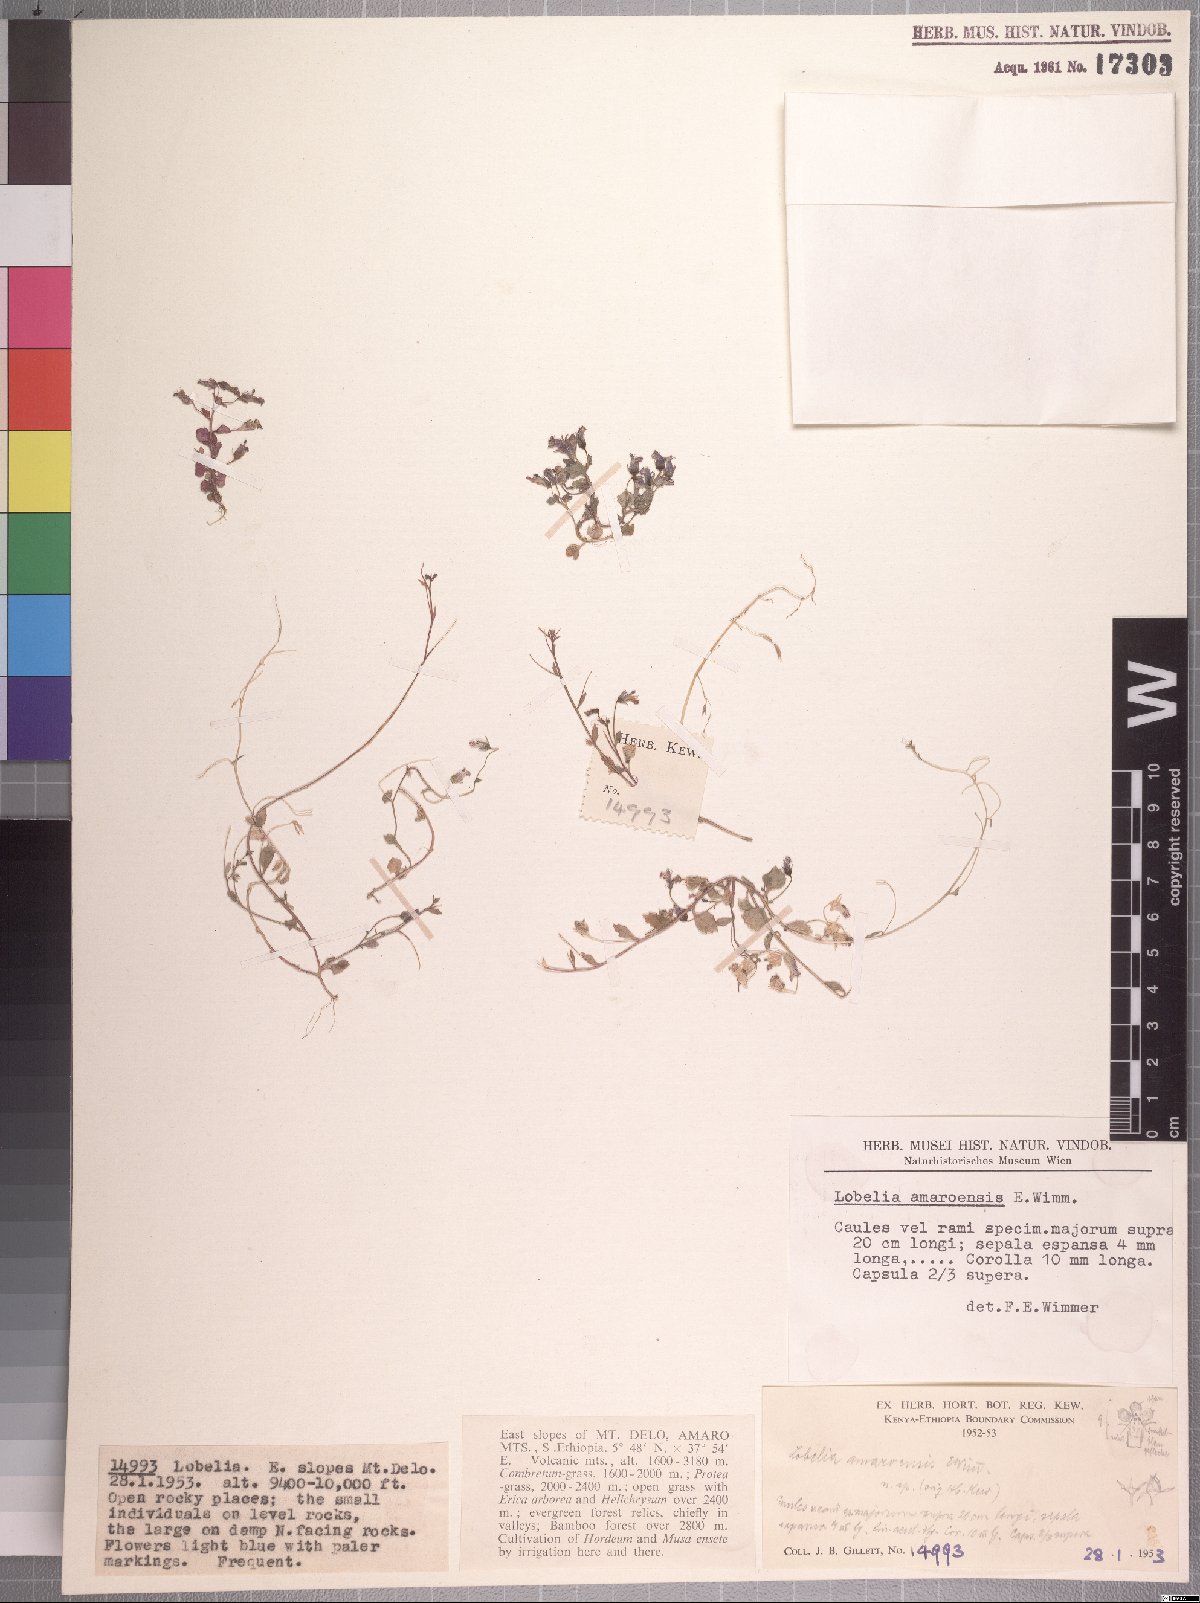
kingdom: Plantae
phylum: Tracheophyta
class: Magnoliopsida
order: Asterales
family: Campanulaceae
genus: Lobelia
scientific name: Lobelia neumannii
